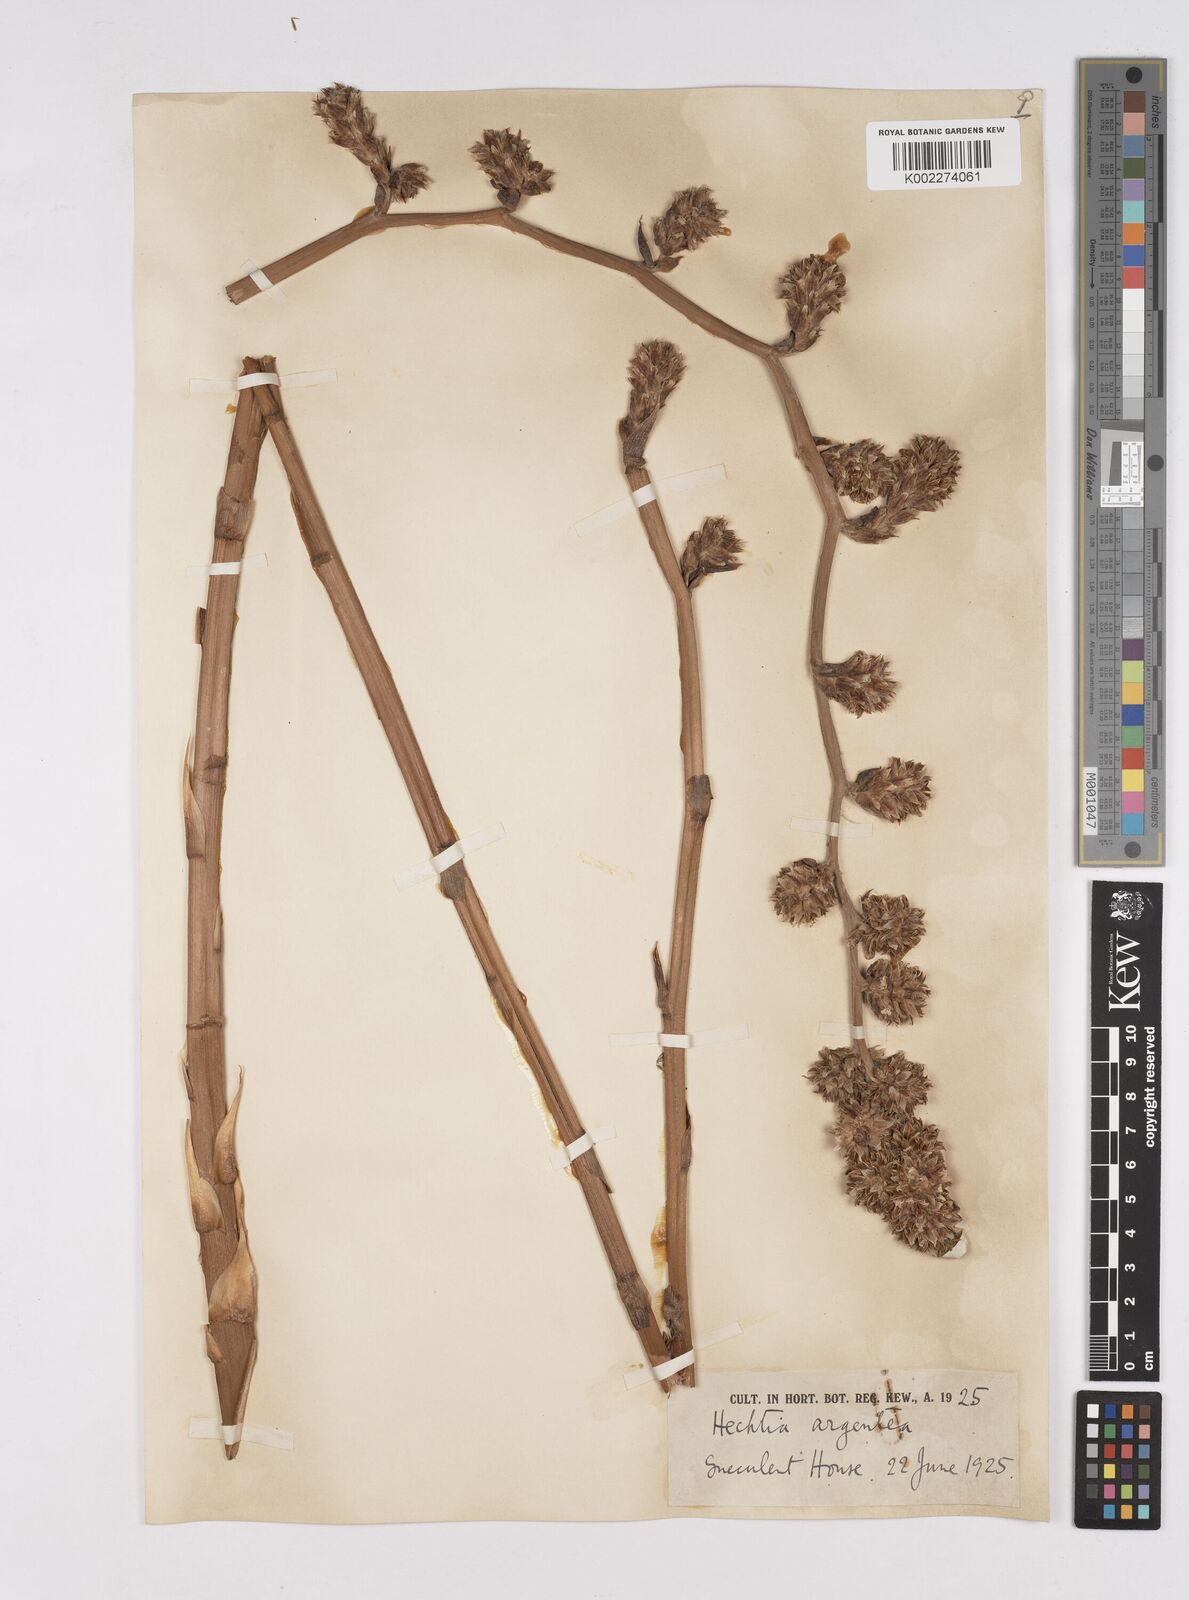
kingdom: Plantae
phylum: Tracheophyta
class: Liliopsida
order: Poales
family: Bromeliaceae
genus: Hechtia
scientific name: Hechtia argentea
